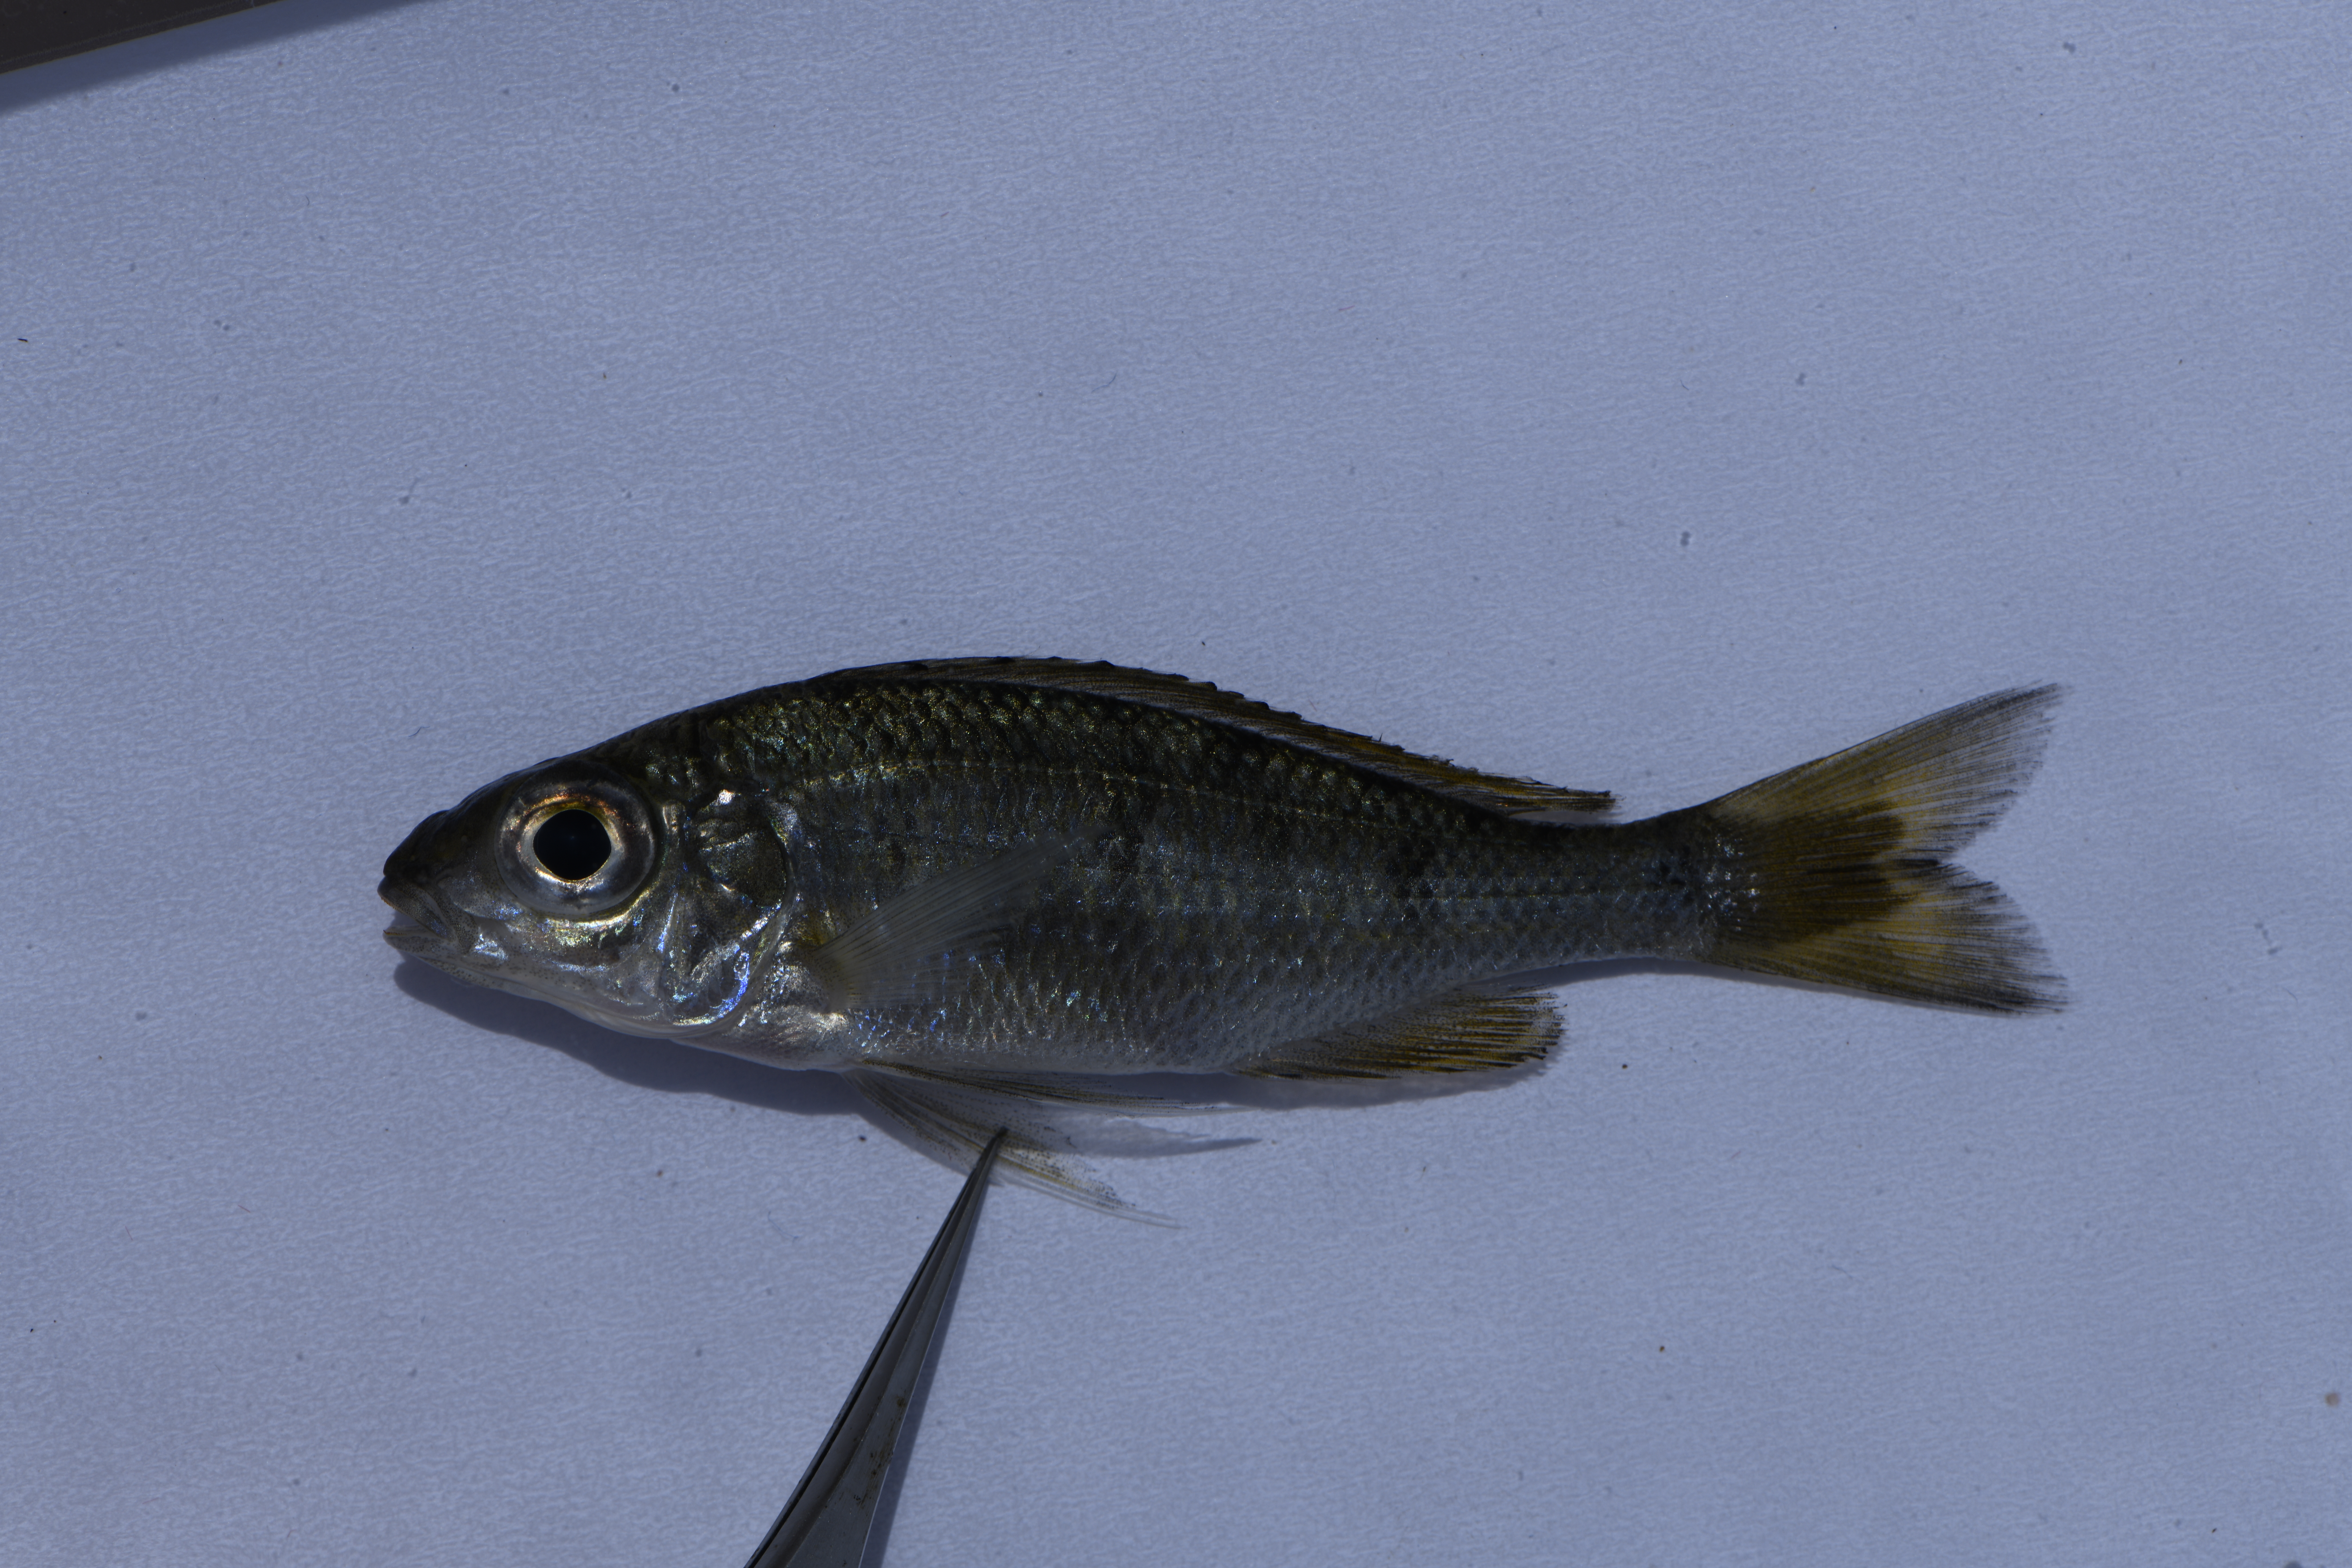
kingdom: Animalia
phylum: Chordata
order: Perciformes
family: Cichlidae
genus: Ophthalmotilapia
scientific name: Ophthalmotilapia nasuta
